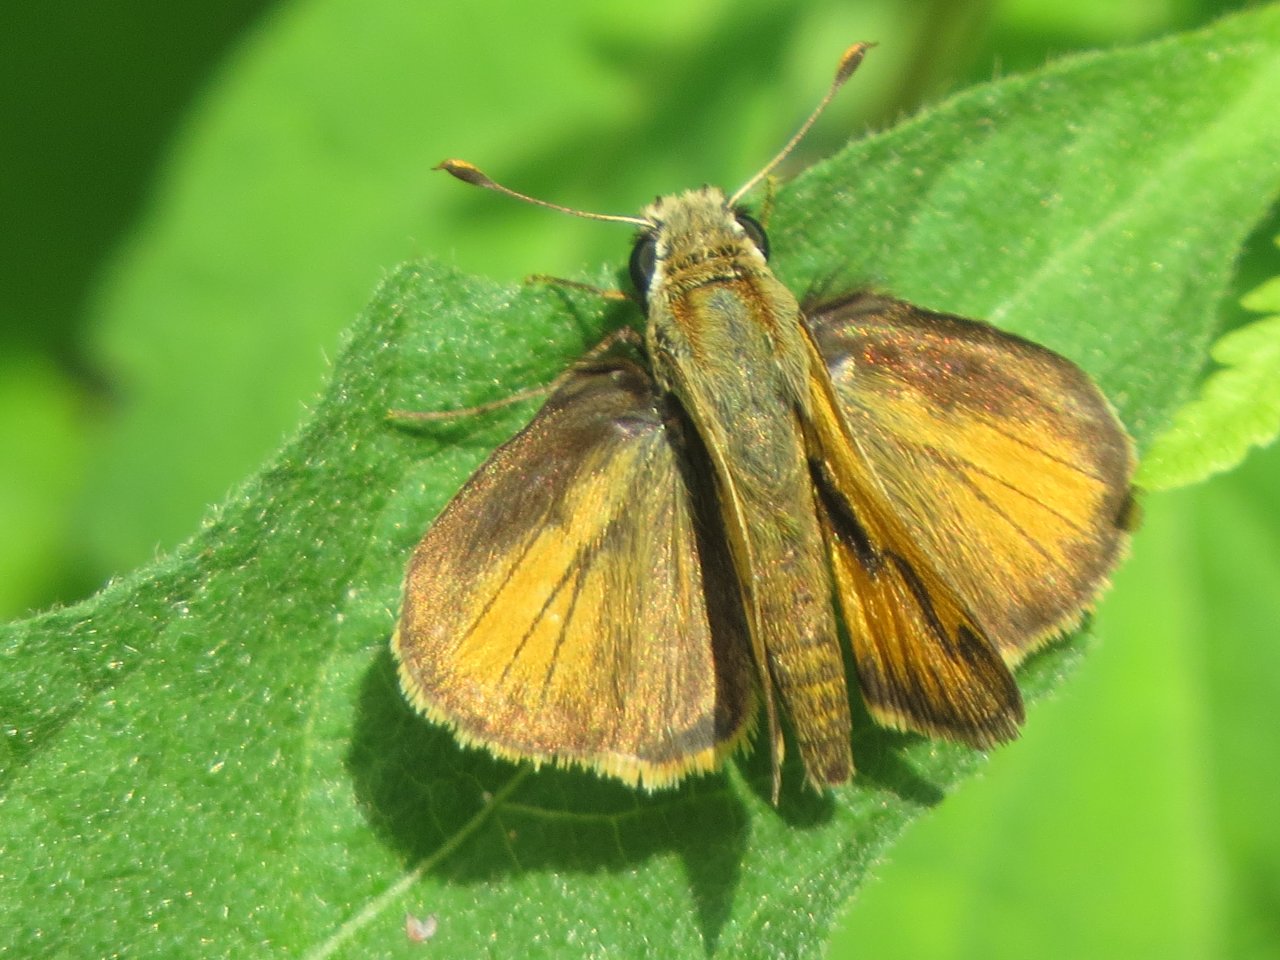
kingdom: Animalia
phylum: Arthropoda
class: Insecta
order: Lepidoptera
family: Hesperiidae
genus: Polites
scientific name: Polites vibex
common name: Whirlabout
